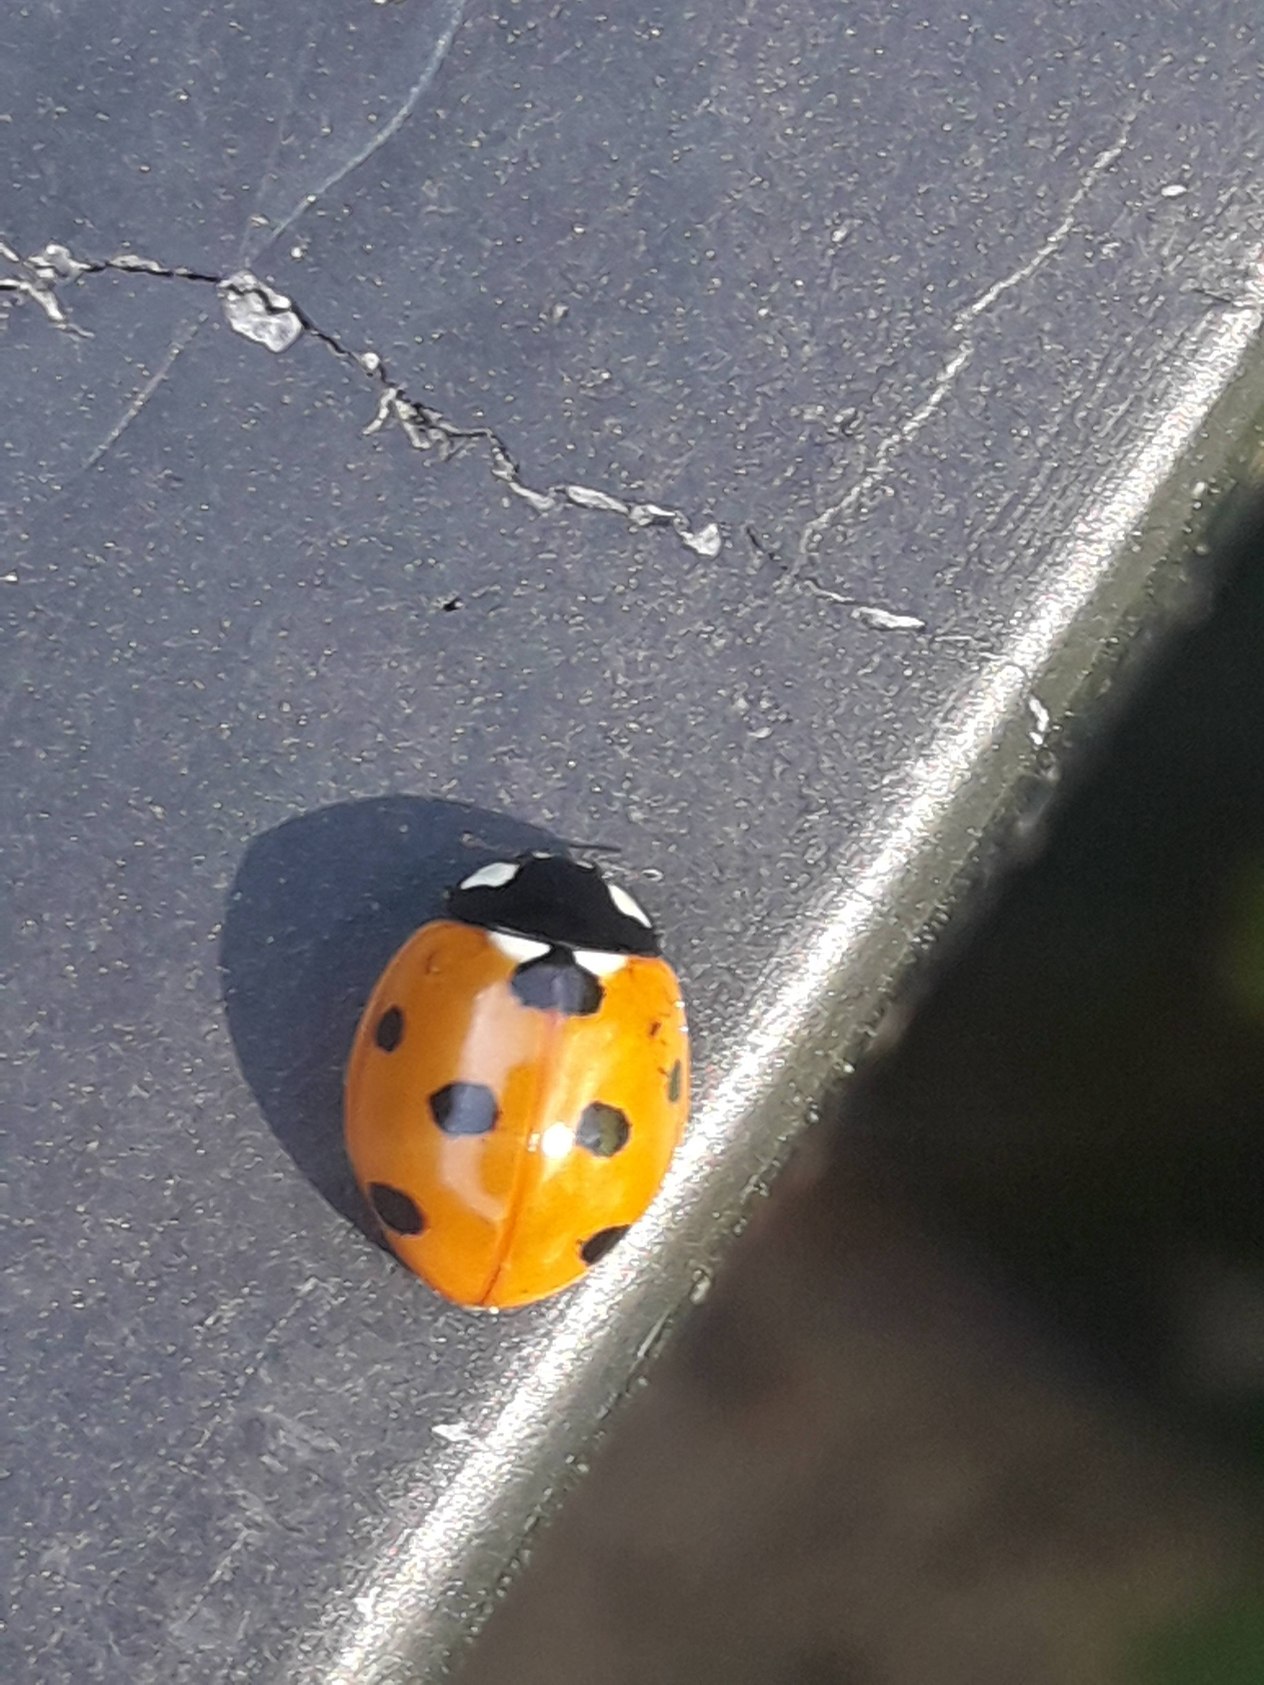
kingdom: Animalia
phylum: Arthropoda
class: Insecta
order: Coleoptera
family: Coccinellidae
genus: Coccinella
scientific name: Coccinella septempunctata
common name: Syvplettet mariehøne
